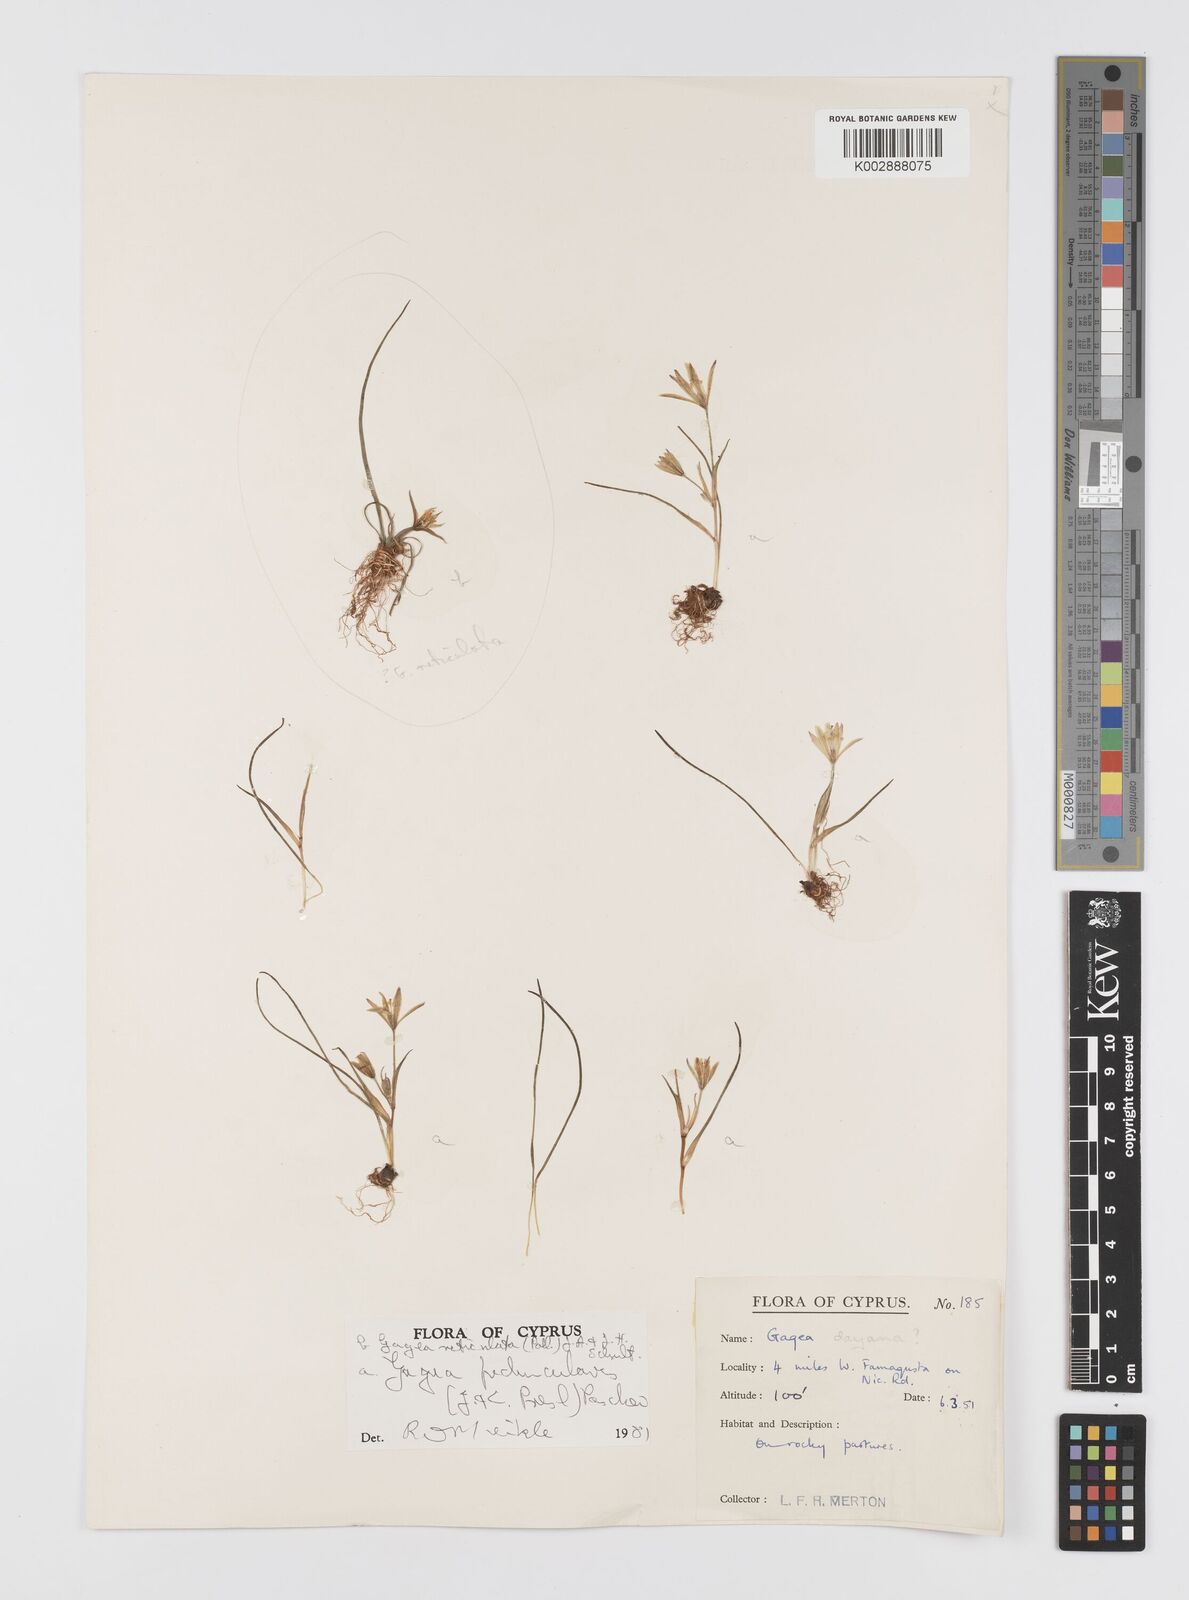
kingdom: Plantae
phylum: Tracheophyta
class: Liliopsida
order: Liliales
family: Liliaceae
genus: Gagea
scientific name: Gagea reticulata
